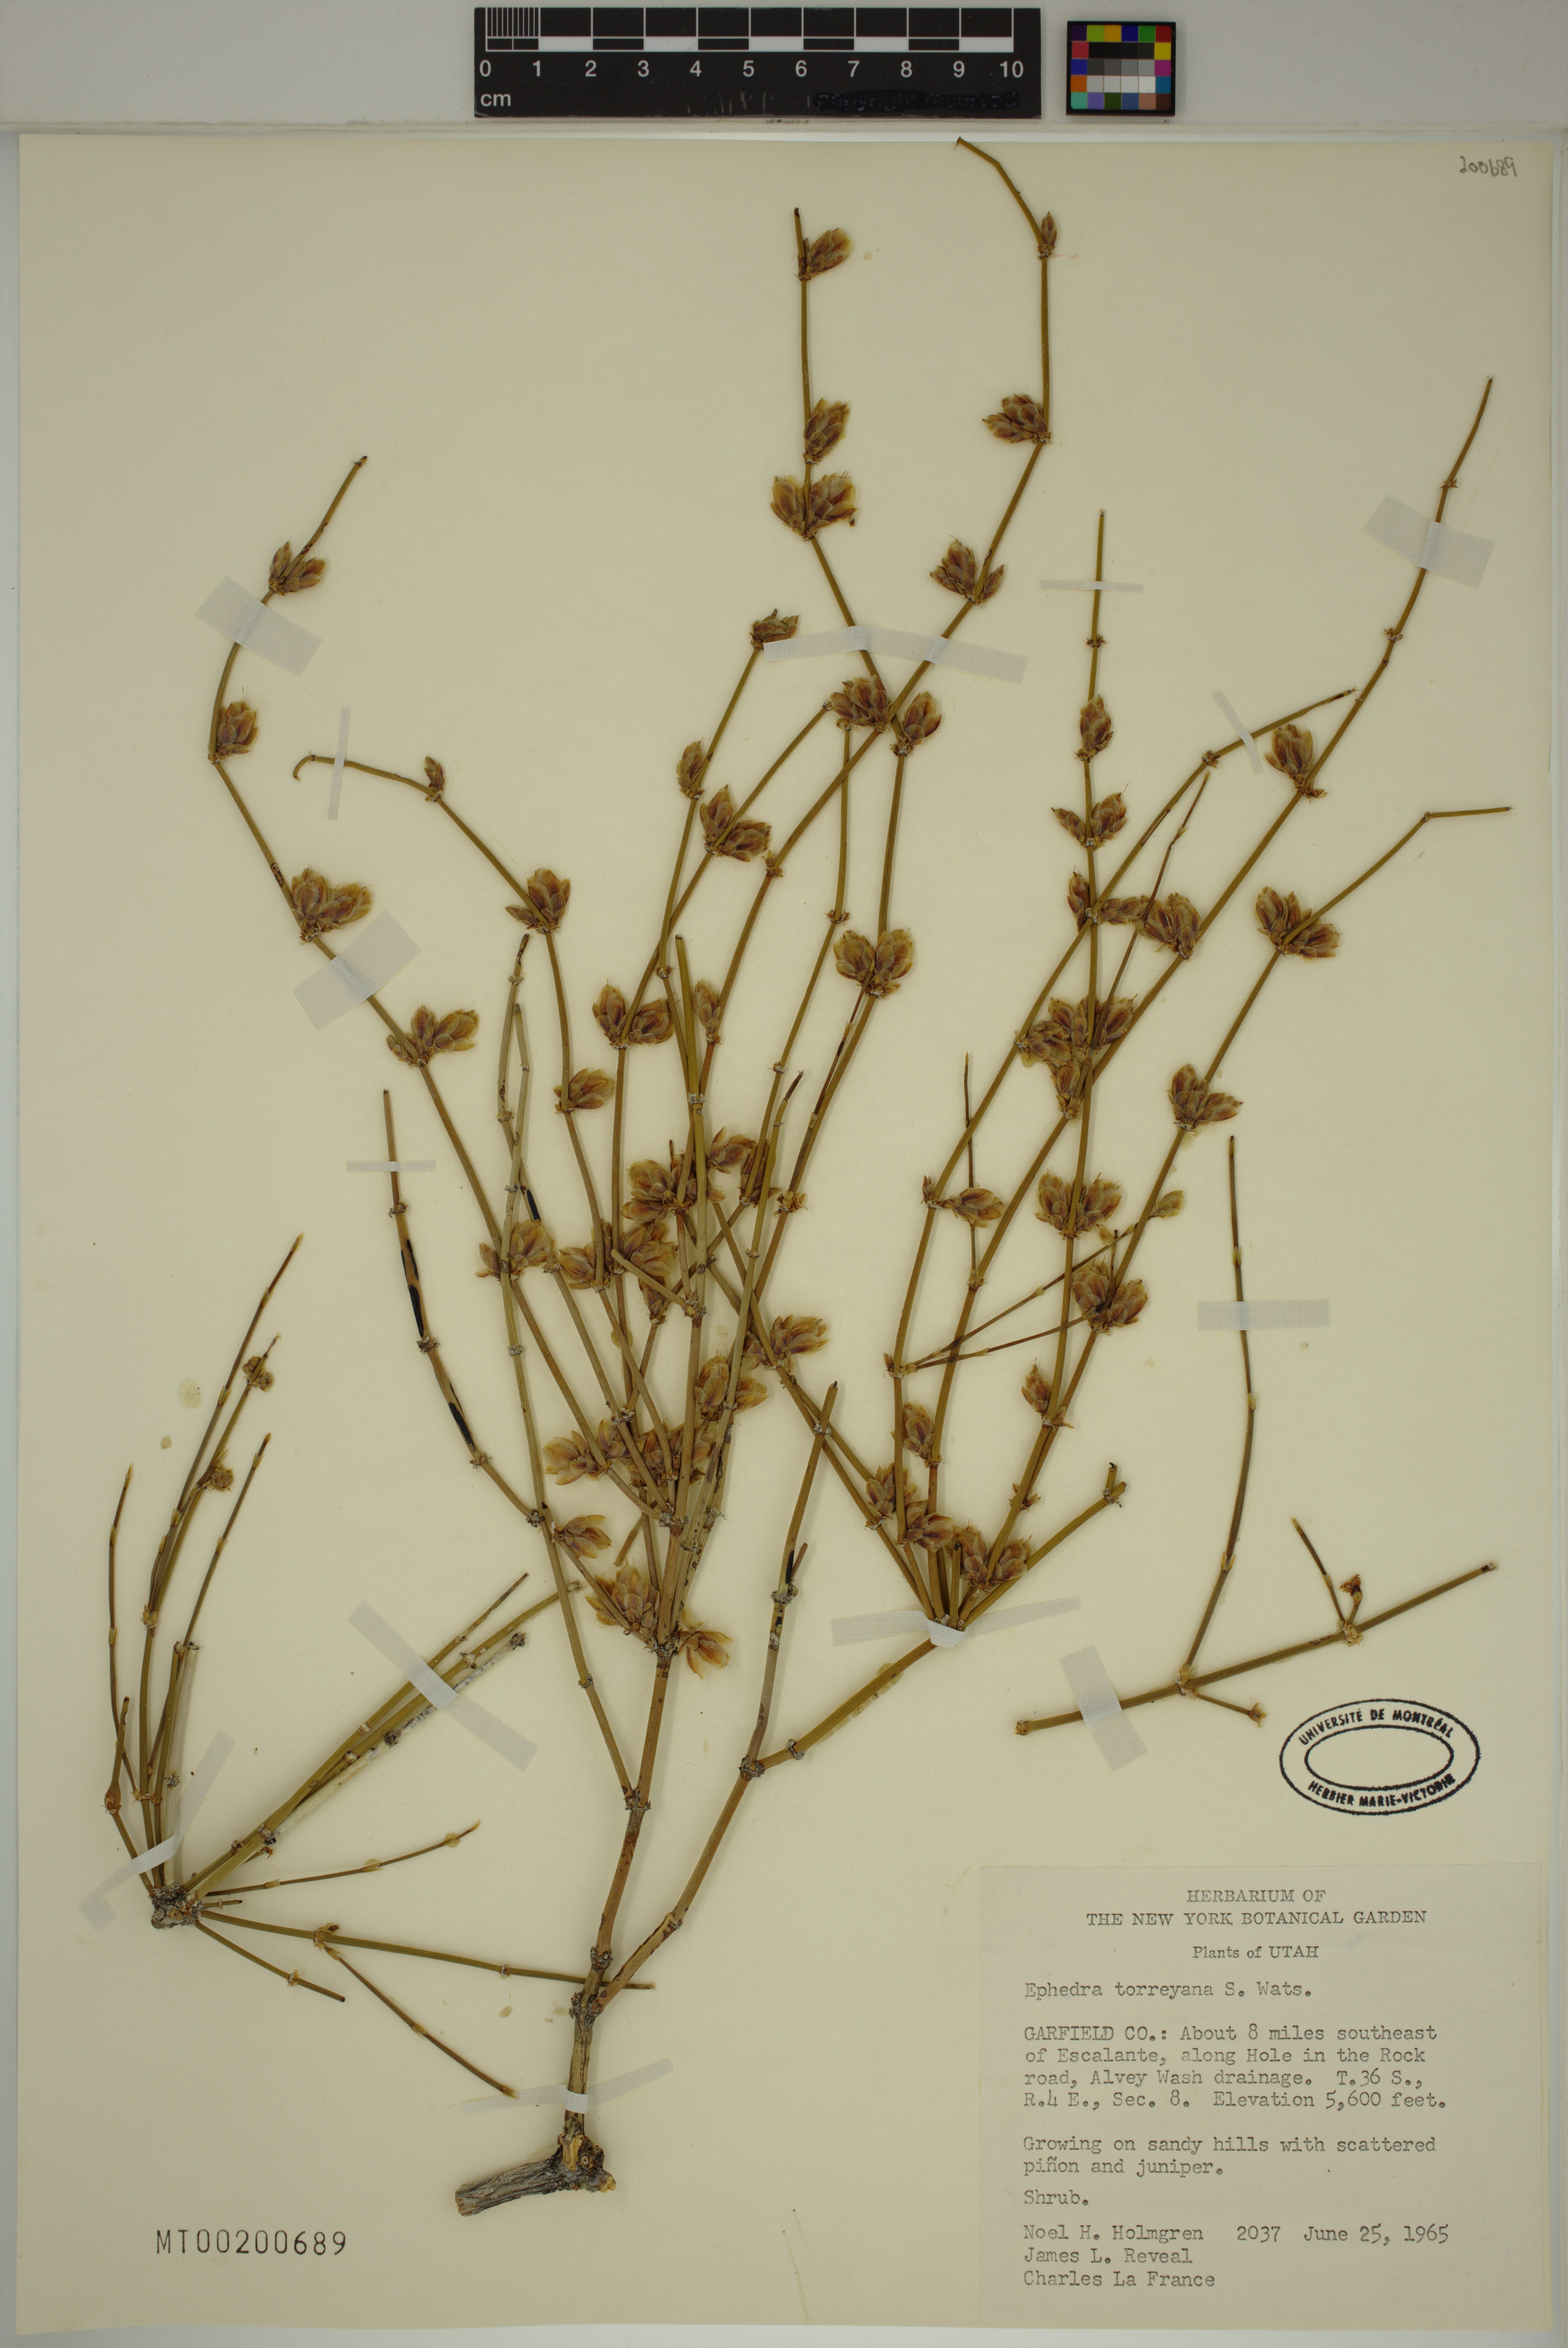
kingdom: Plantae
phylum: Tracheophyta
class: Gnetopsida
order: Ephedrales
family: Ephedraceae
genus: Ephedra
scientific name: Ephedra torreyana
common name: Torrey ephedra
